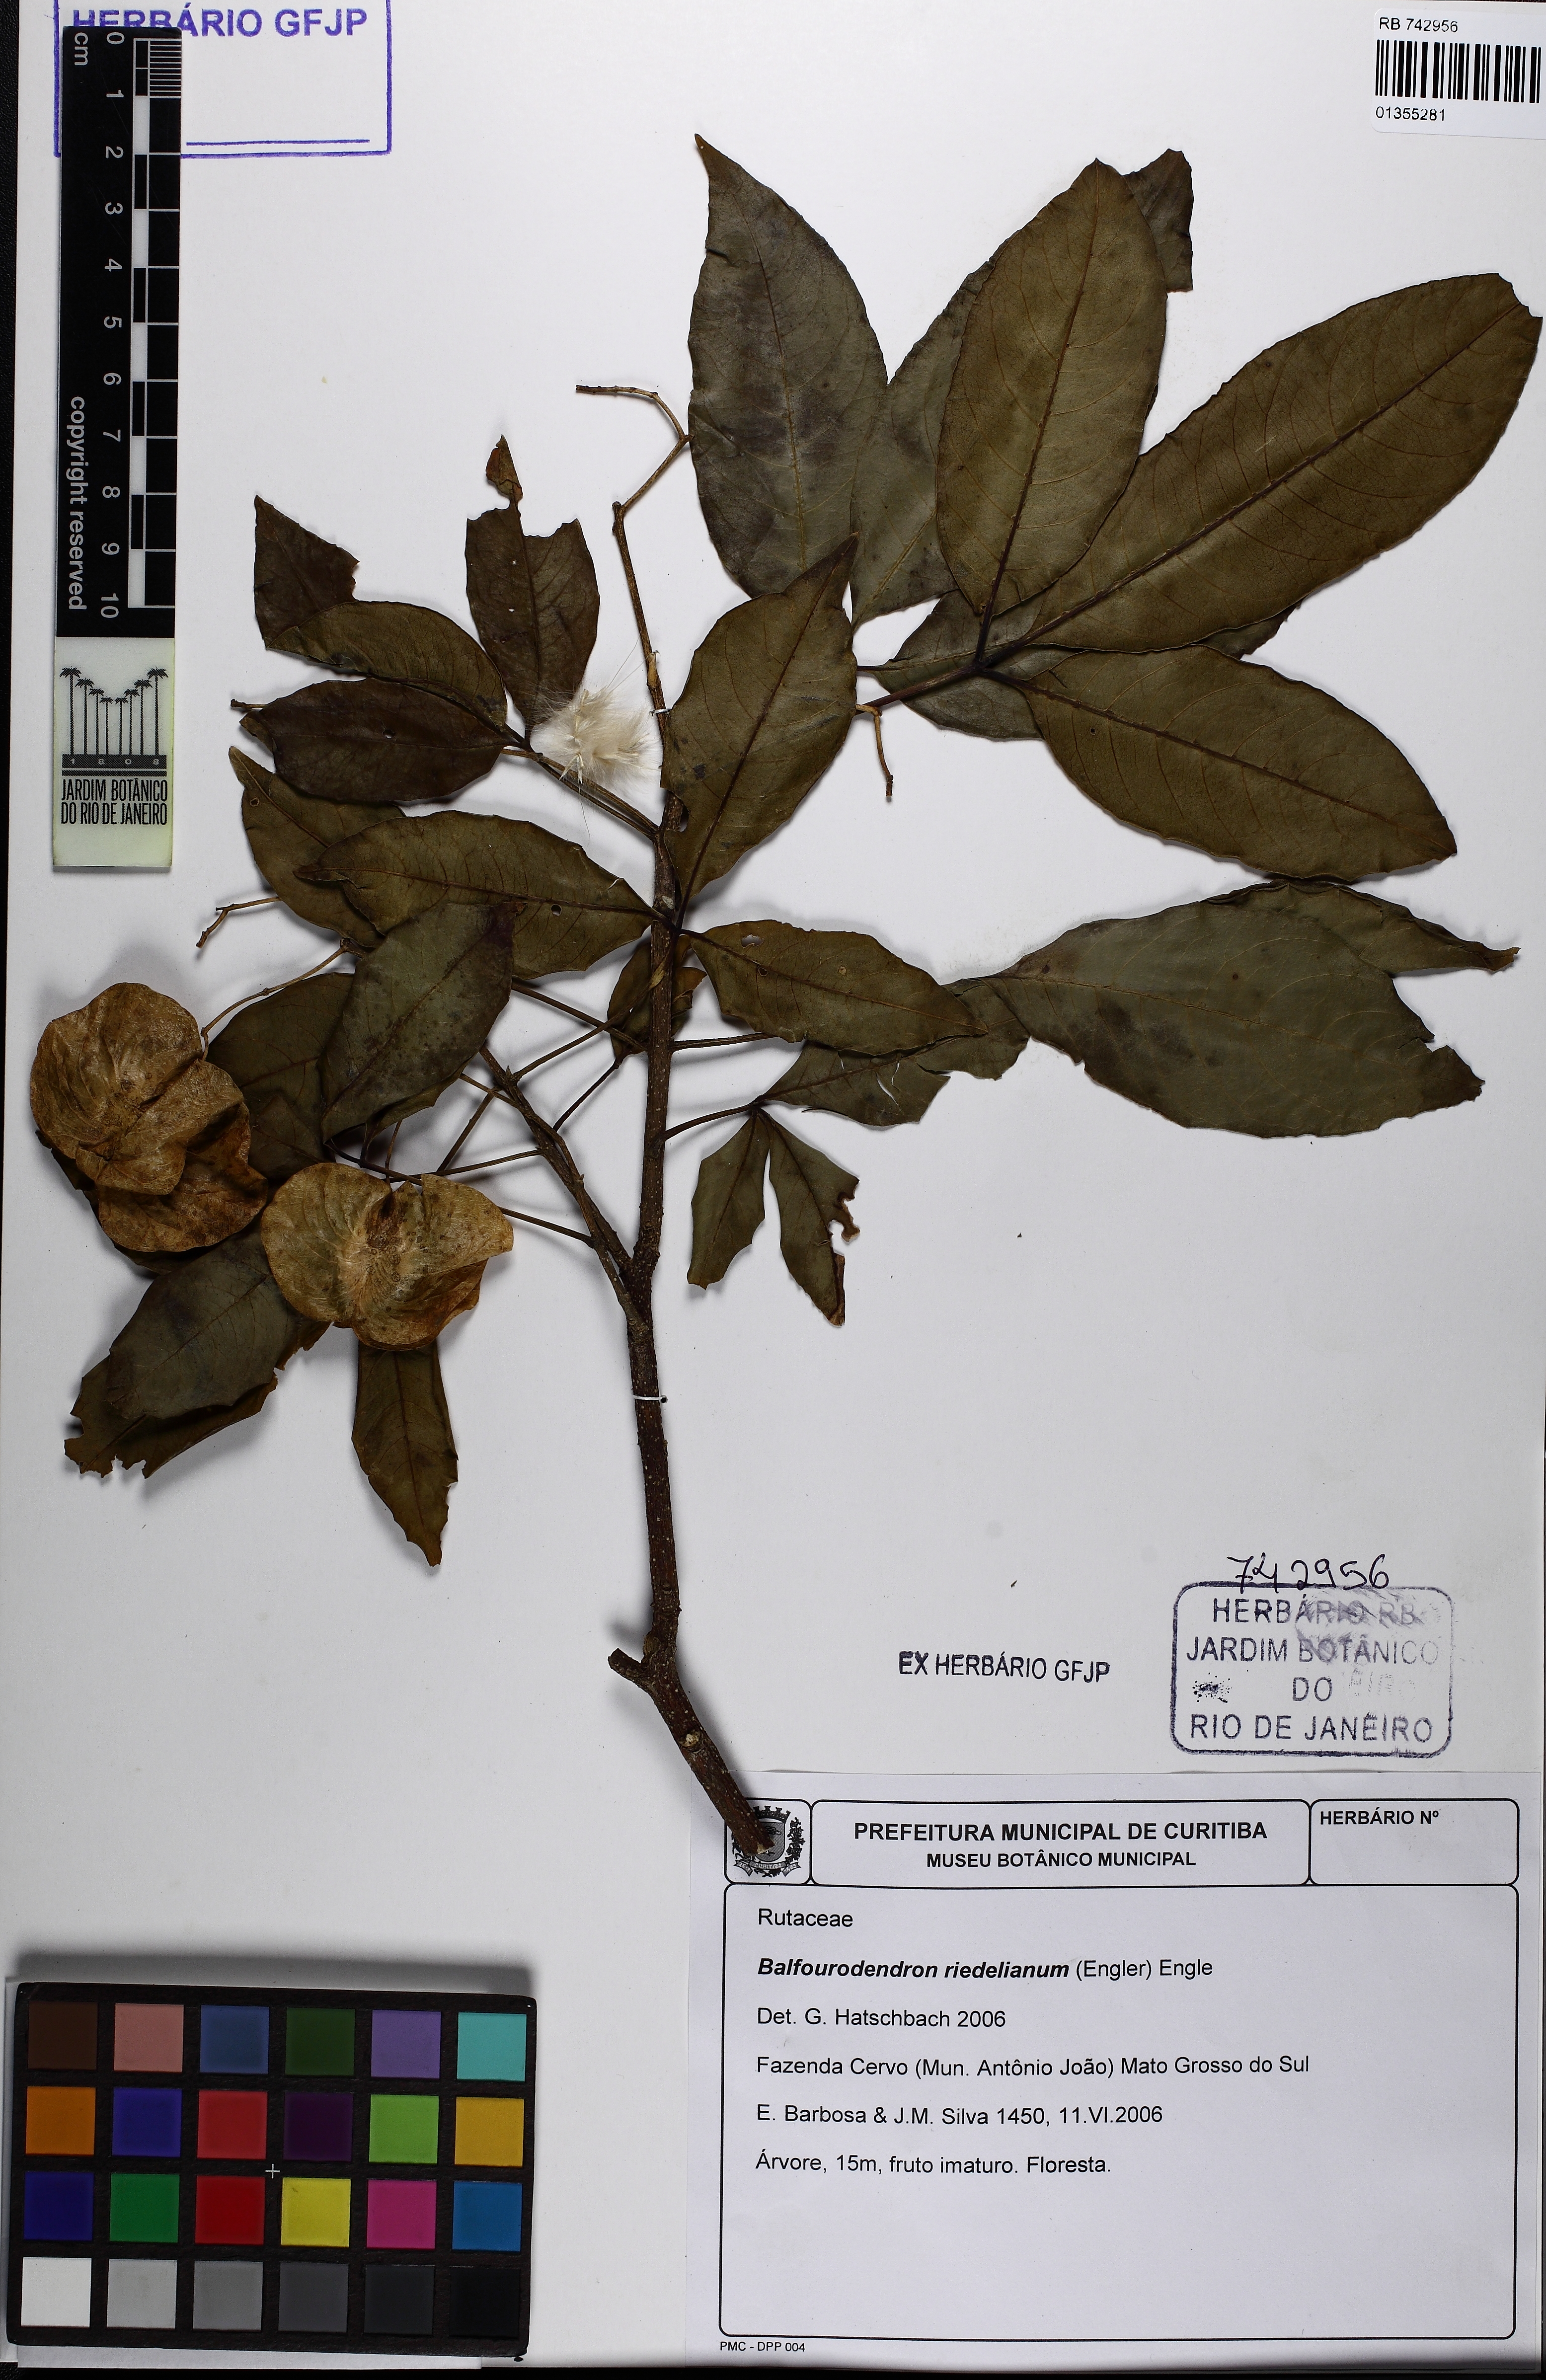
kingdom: Plantae
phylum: Tracheophyta
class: Magnoliopsida
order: Sapindales
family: Rutaceae
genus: Balfourodendron
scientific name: Balfourodendron riedelianum
